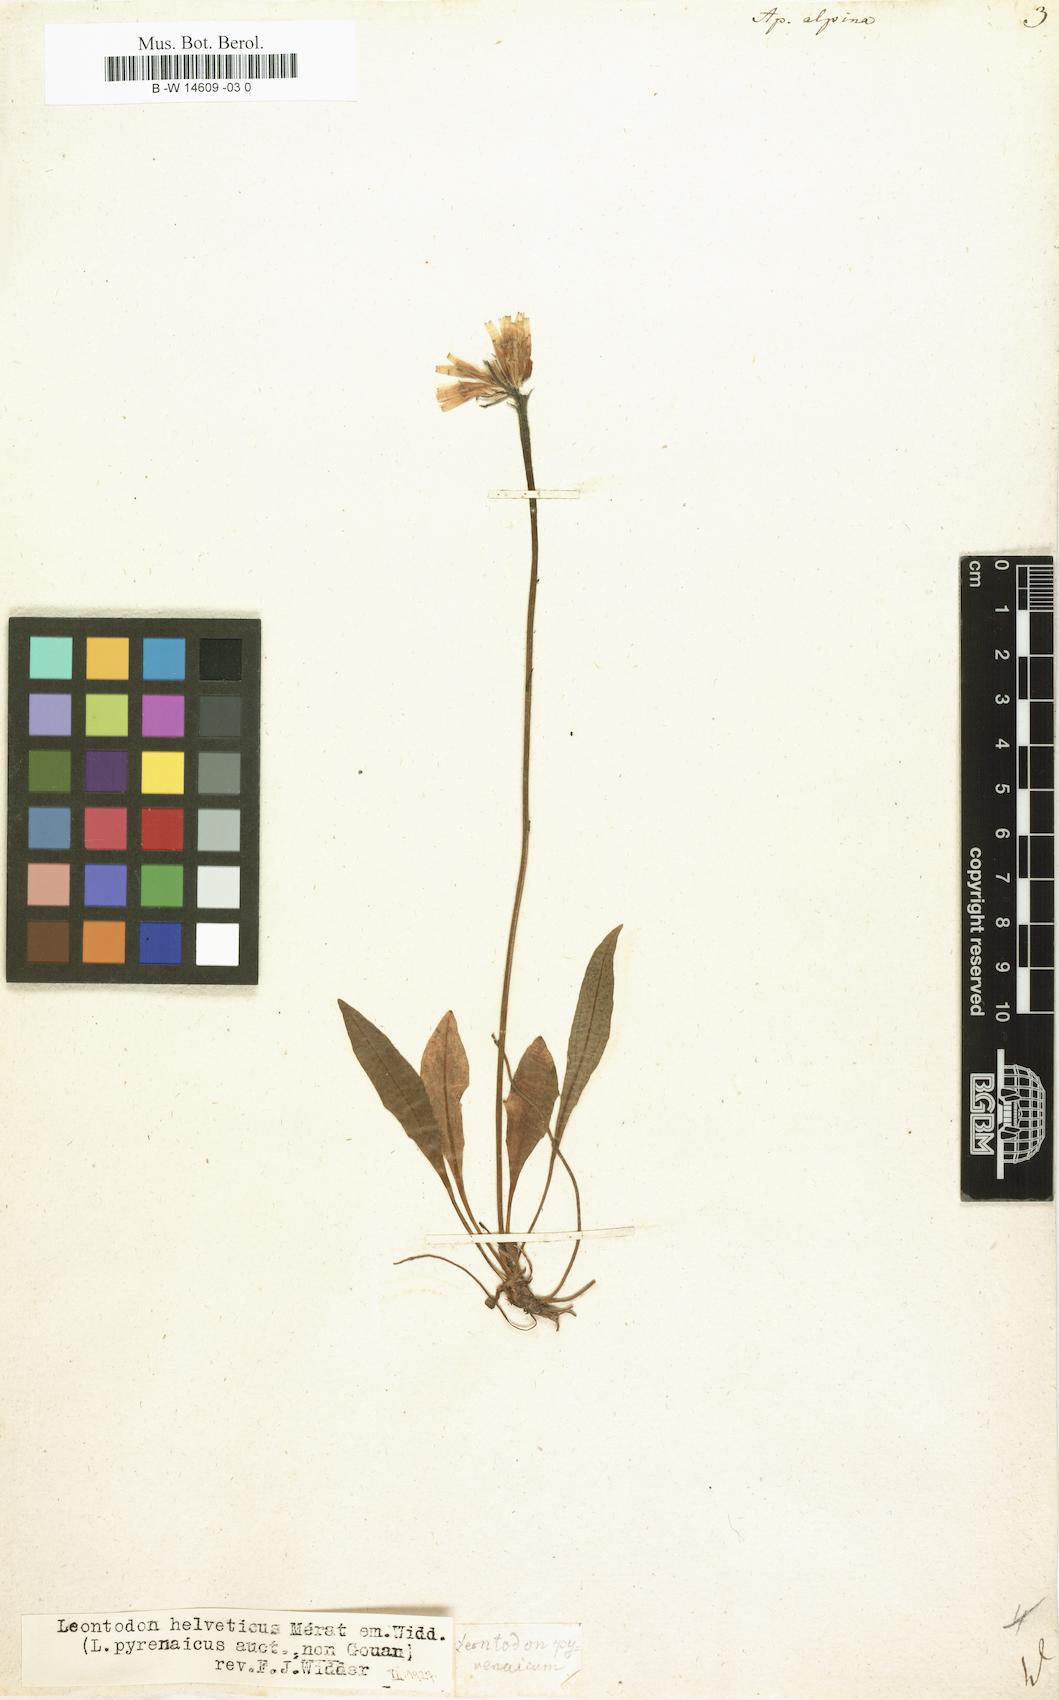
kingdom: Plantae
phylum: Tracheophyta
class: Magnoliopsida
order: Asterales
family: Asteraceae
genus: Scorzoneroides
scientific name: Scorzoneroides pyrenaica
